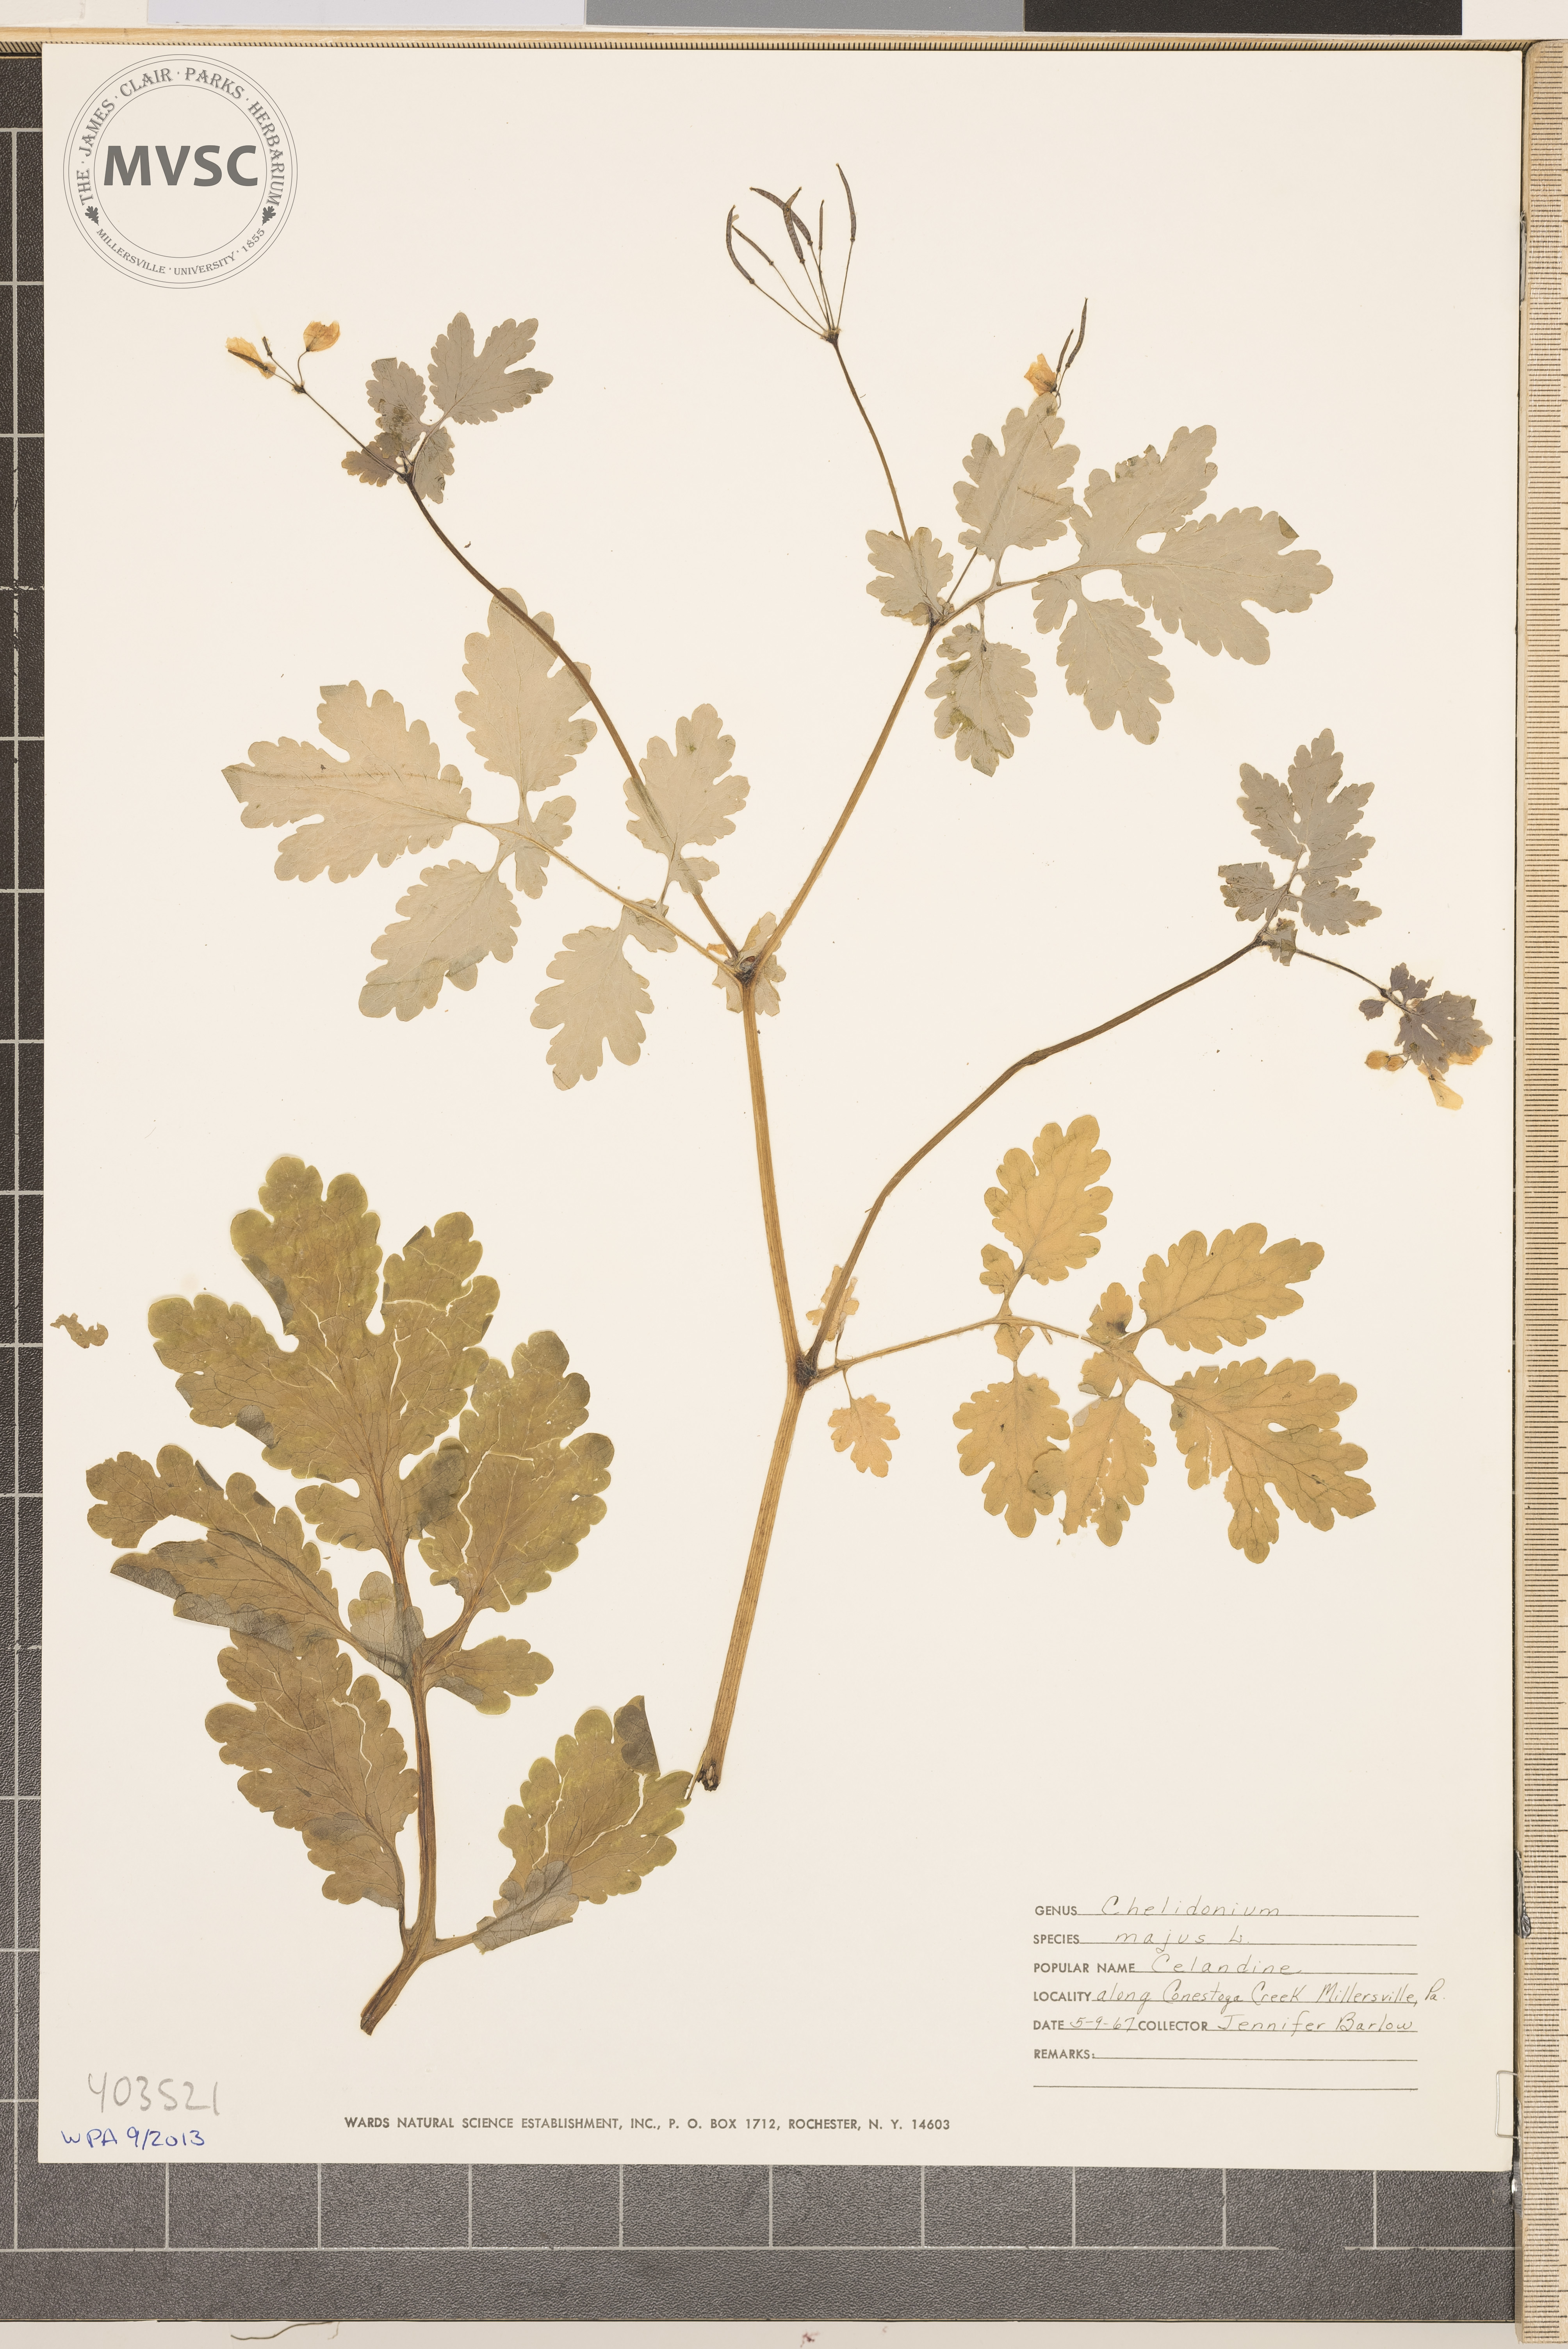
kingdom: Plantae
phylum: Tracheophyta
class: Magnoliopsida
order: Ranunculales
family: Papaveraceae
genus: Chelidonium
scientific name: Chelidonium majus
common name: Greater celandine
